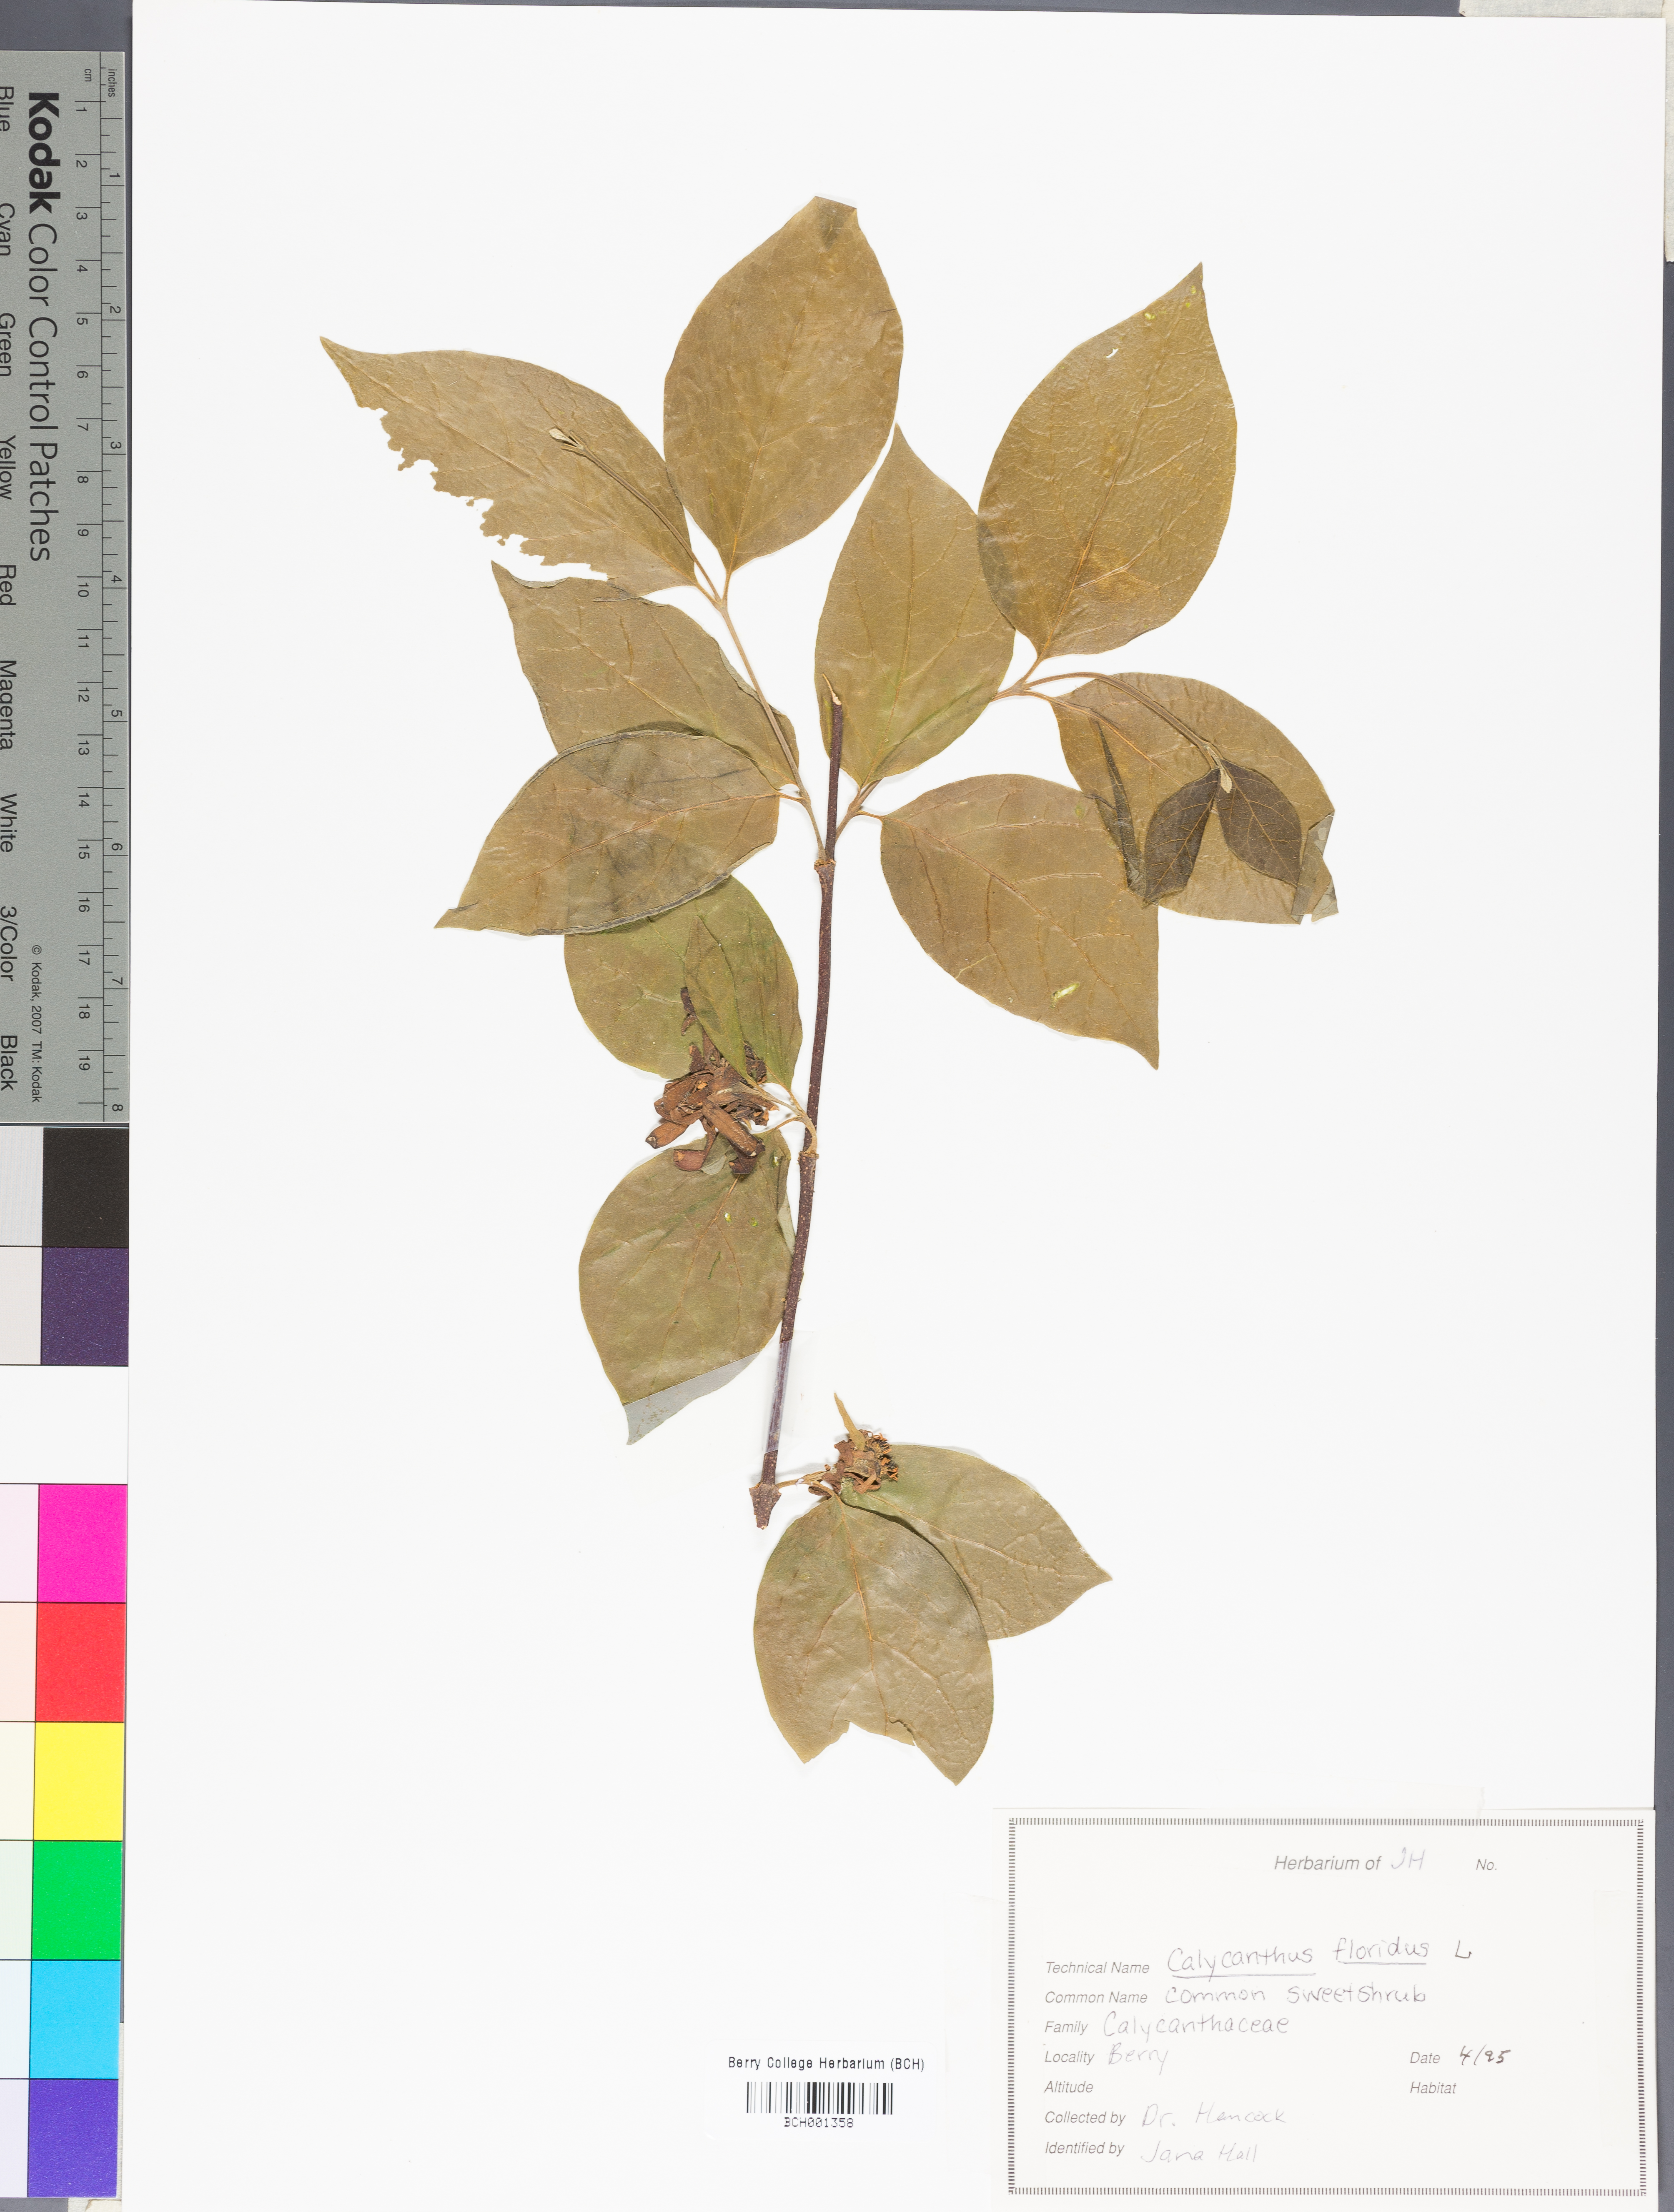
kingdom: Plantae
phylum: Tracheophyta
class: Magnoliopsida
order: Laurales
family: Calycanthaceae
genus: Calycanthus
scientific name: Calycanthus floridus
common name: Carolina-allspice
